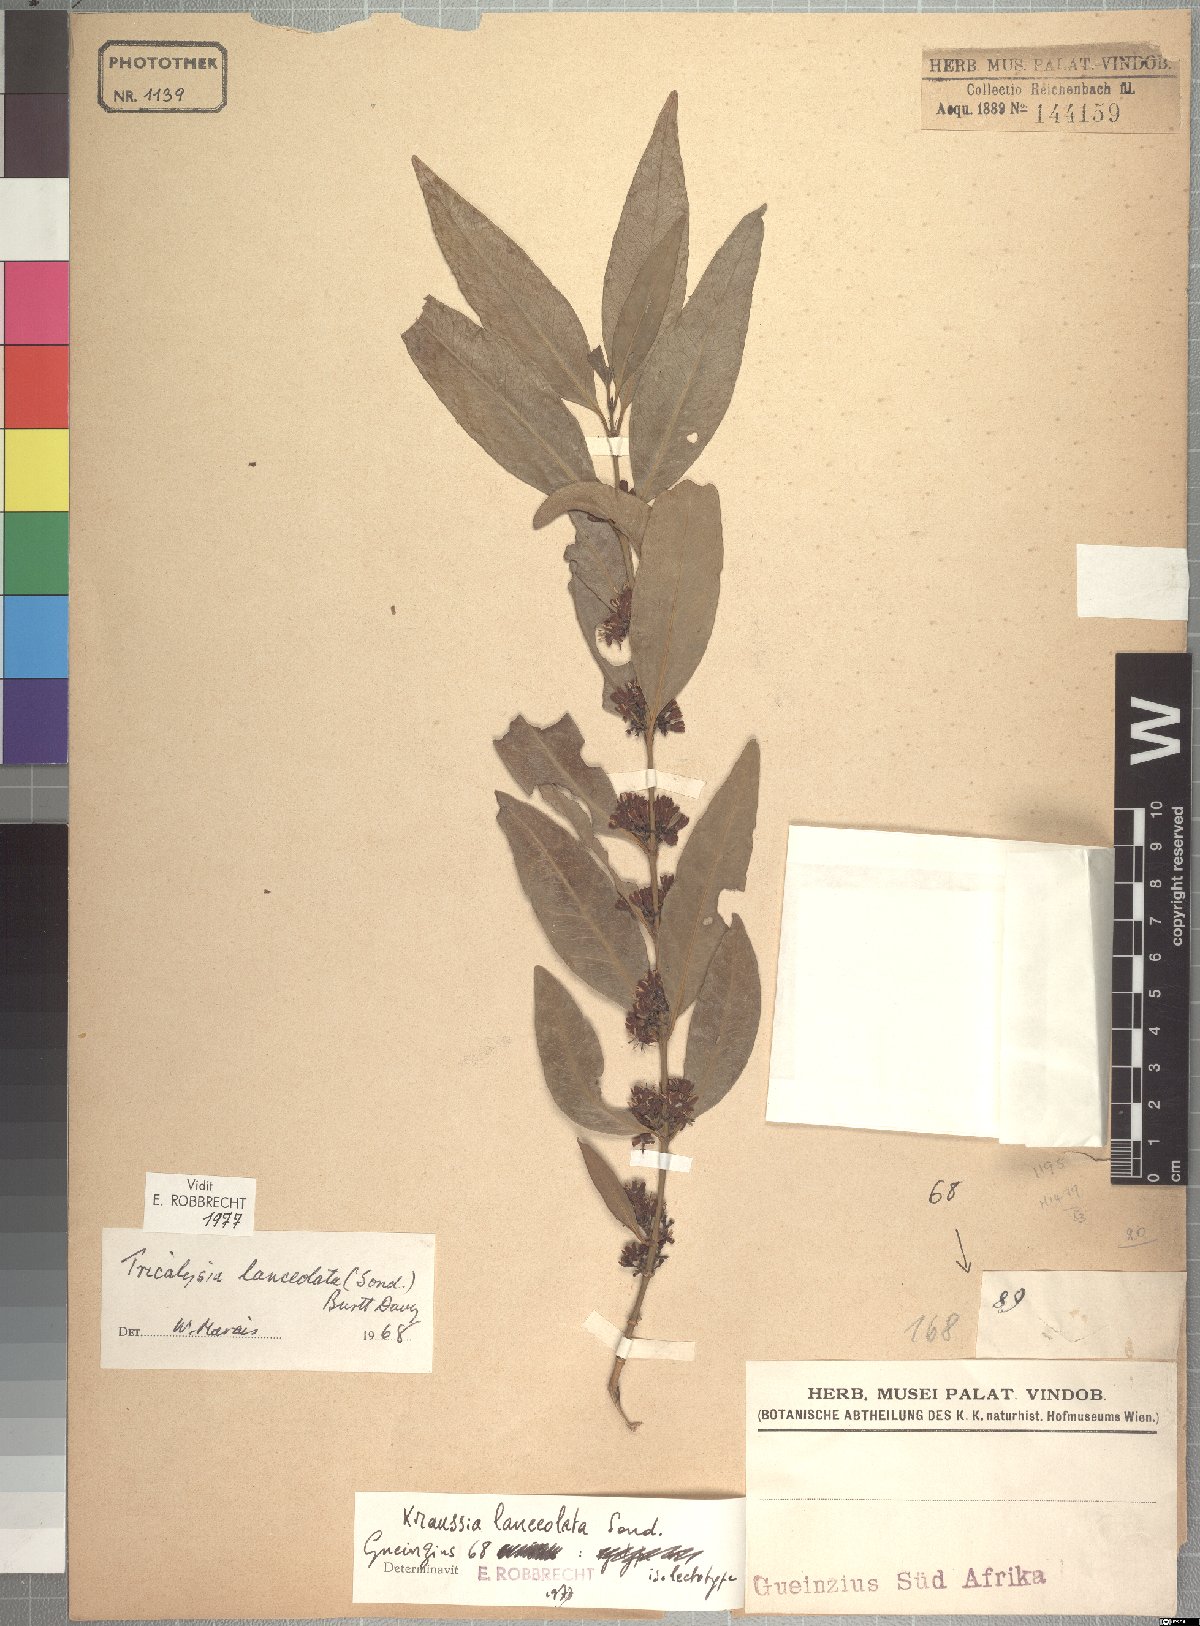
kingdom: Plantae
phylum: Tracheophyta
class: Magnoliopsida
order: Gentianales
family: Rubiaceae
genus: Empogona
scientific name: Empogona lanceolata
